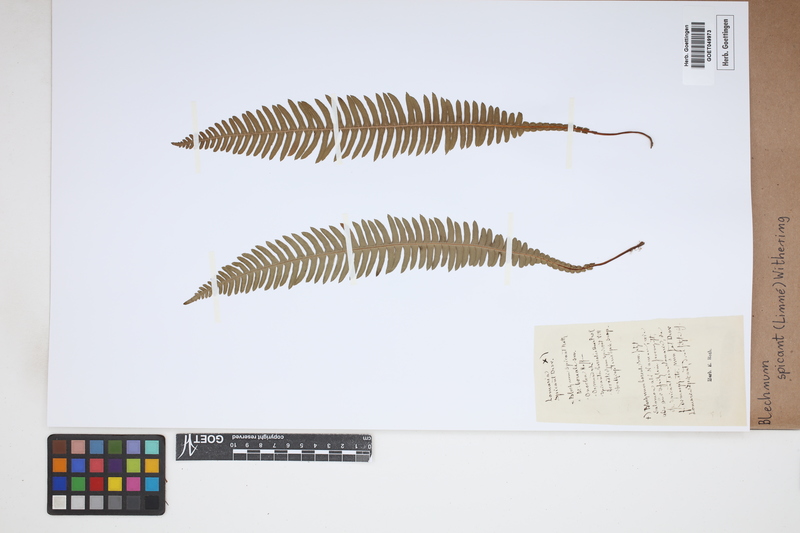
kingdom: Plantae
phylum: Tracheophyta
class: Polypodiopsida
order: Polypodiales
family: Blechnaceae
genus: Struthiopteris
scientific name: Struthiopteris spicant
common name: Deer fern
